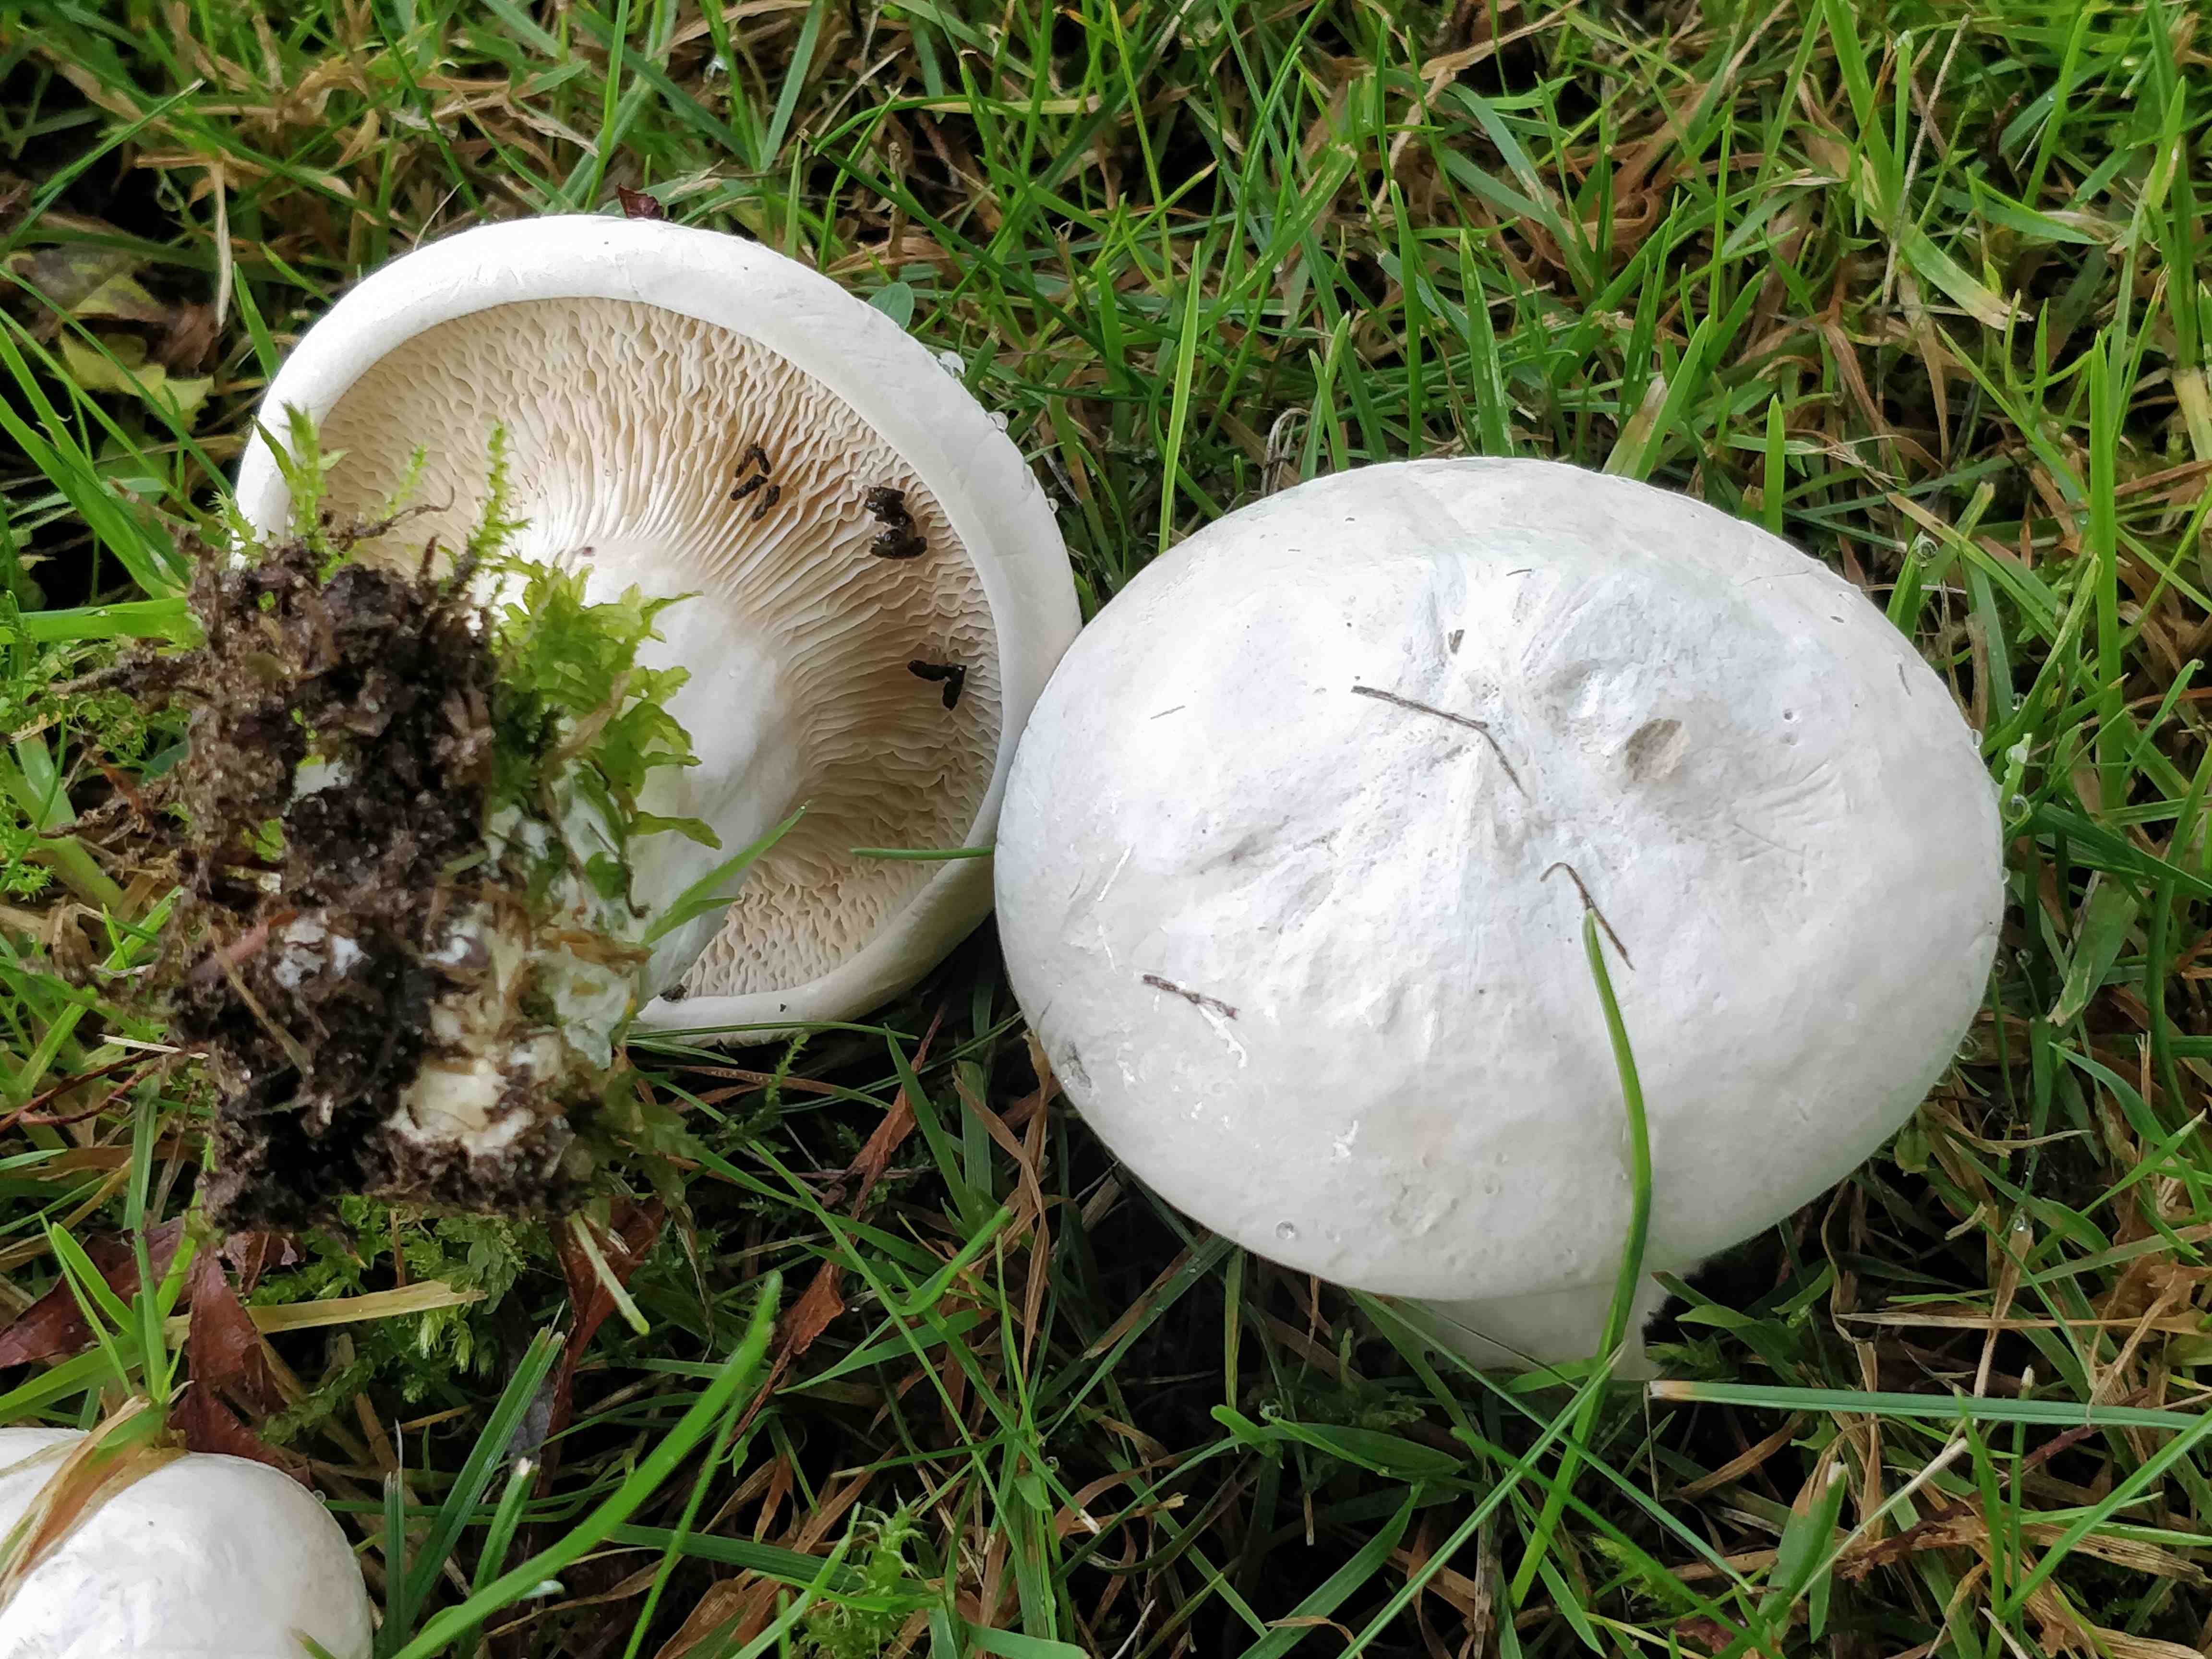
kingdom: Fungi
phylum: Basidiomycota
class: Agaricomycetes
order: Agaricales
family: Entolomataceae
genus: Clitopilus
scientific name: Clitopilus prunulus
